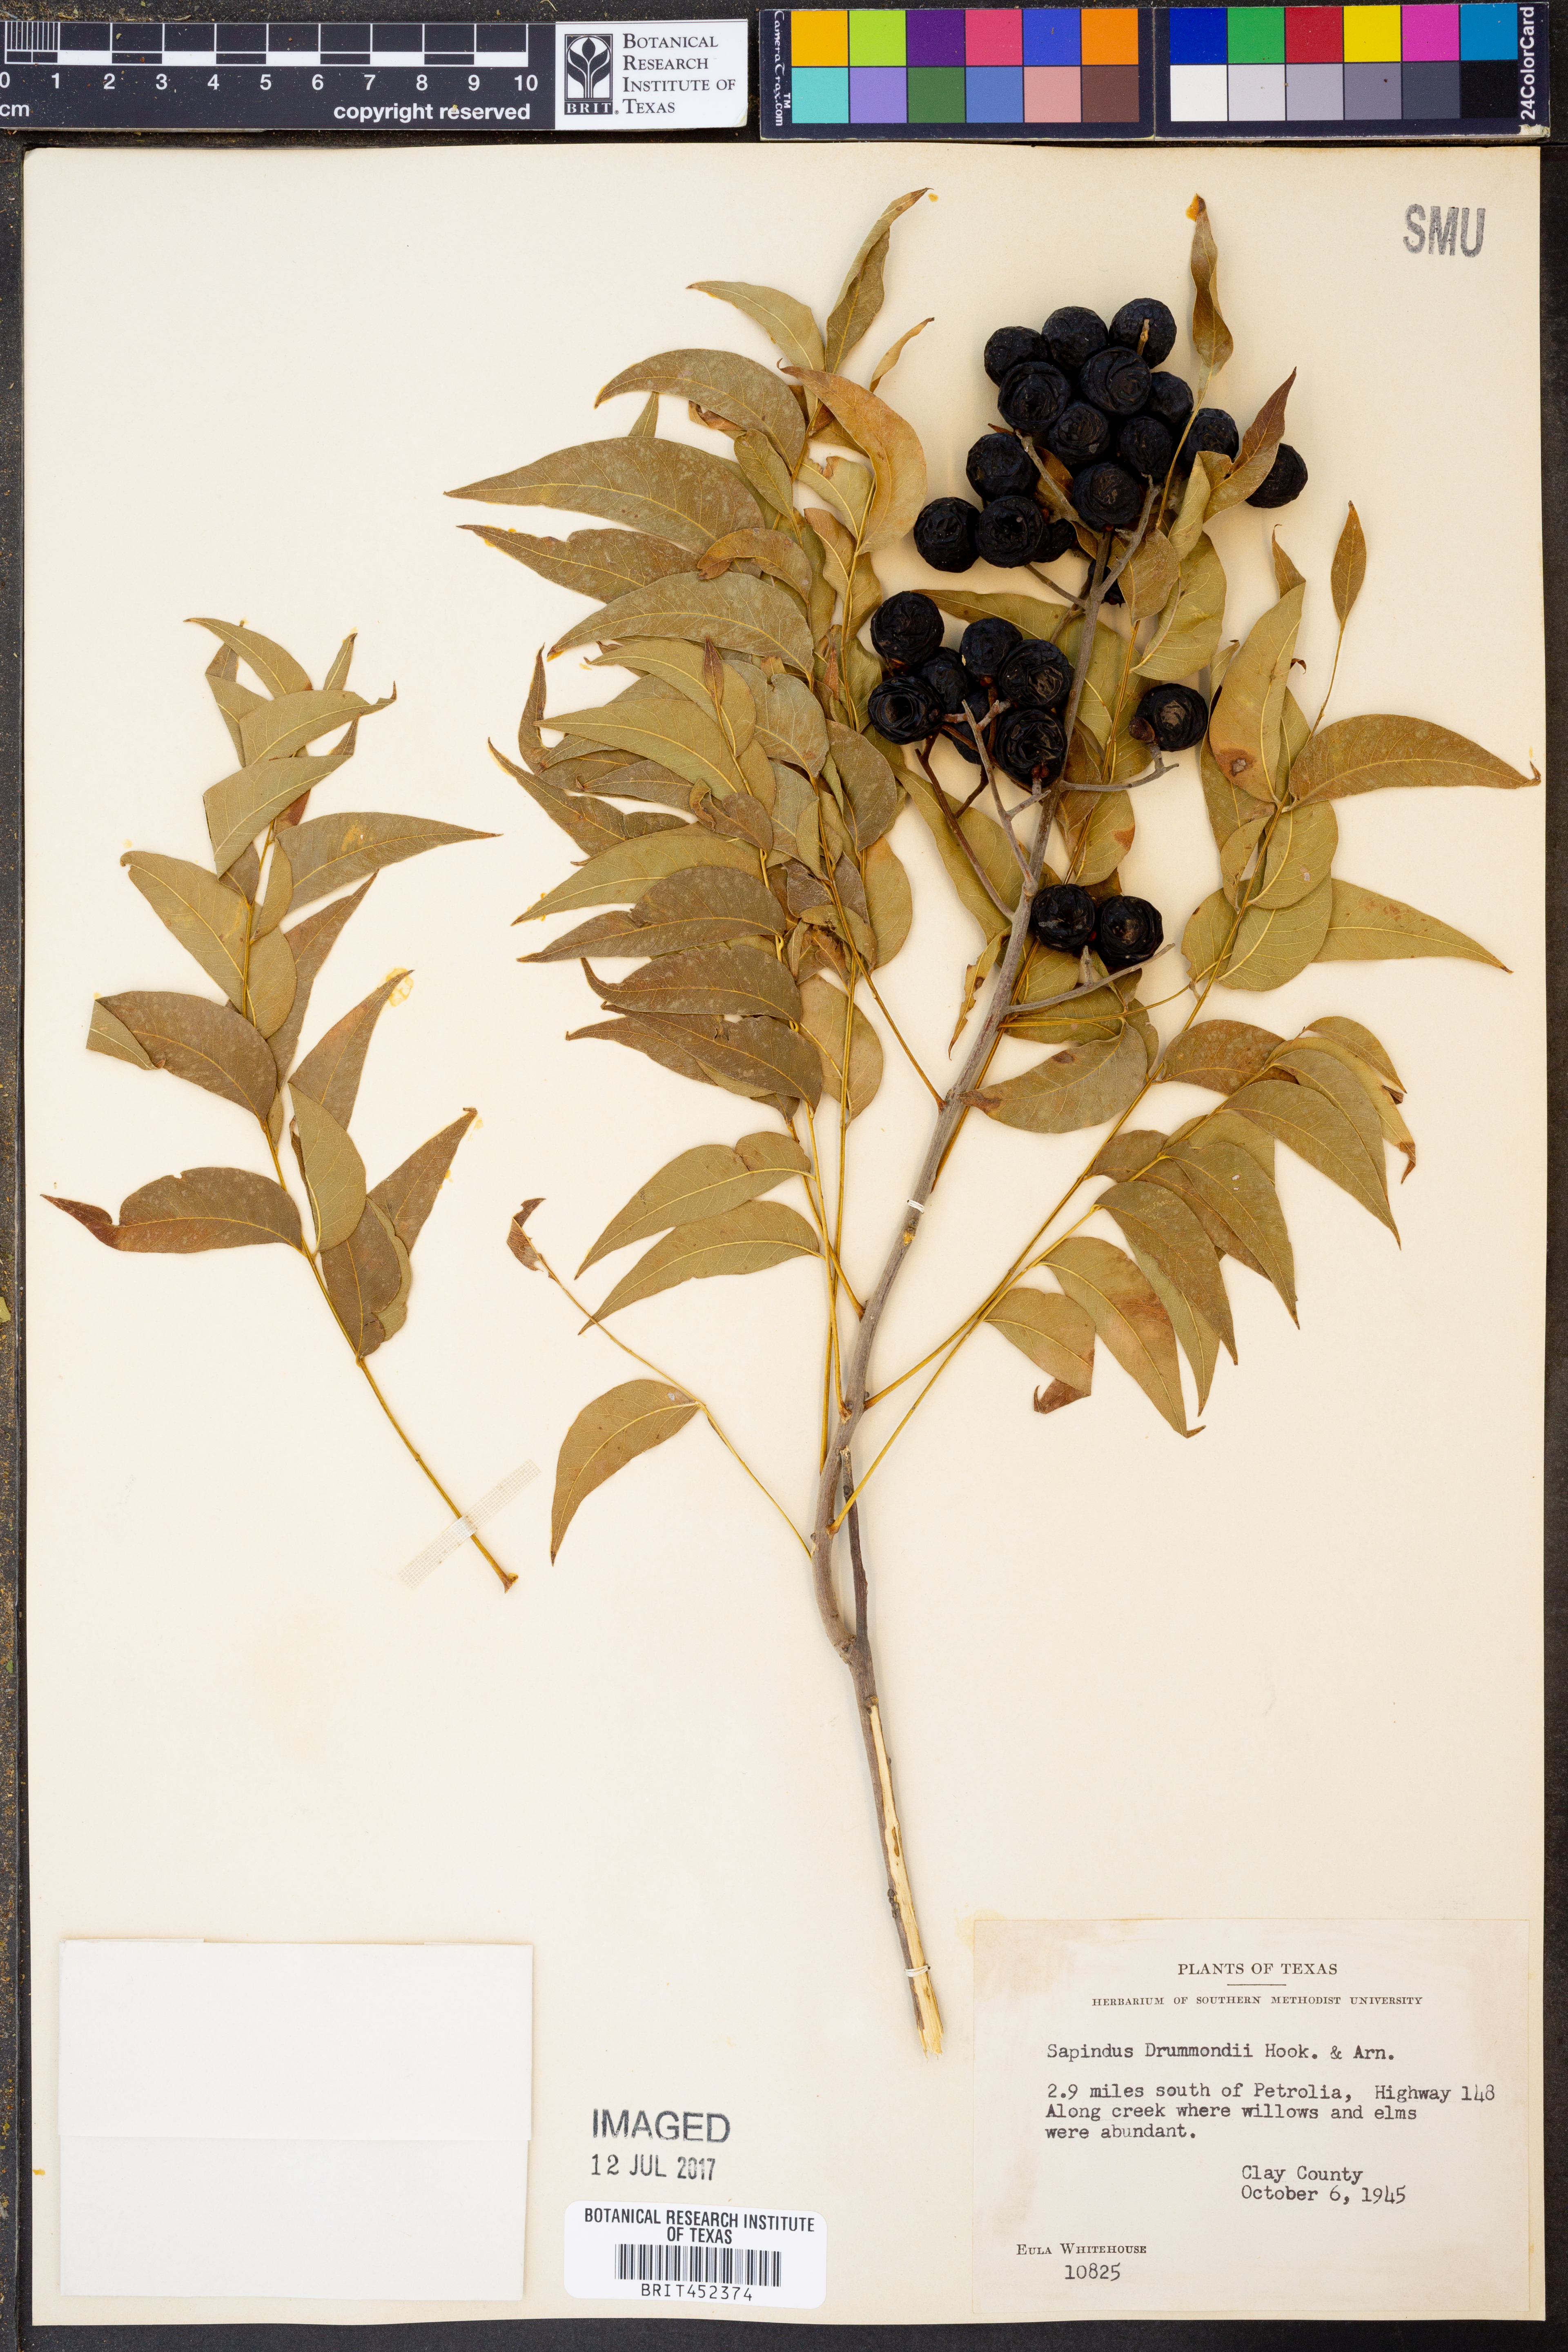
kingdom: Plantae
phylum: Tracheophyta
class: Magnoliopsida
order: Sapindales
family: Sapindaceae
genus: Sapindus
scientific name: Sapindus drummondii
